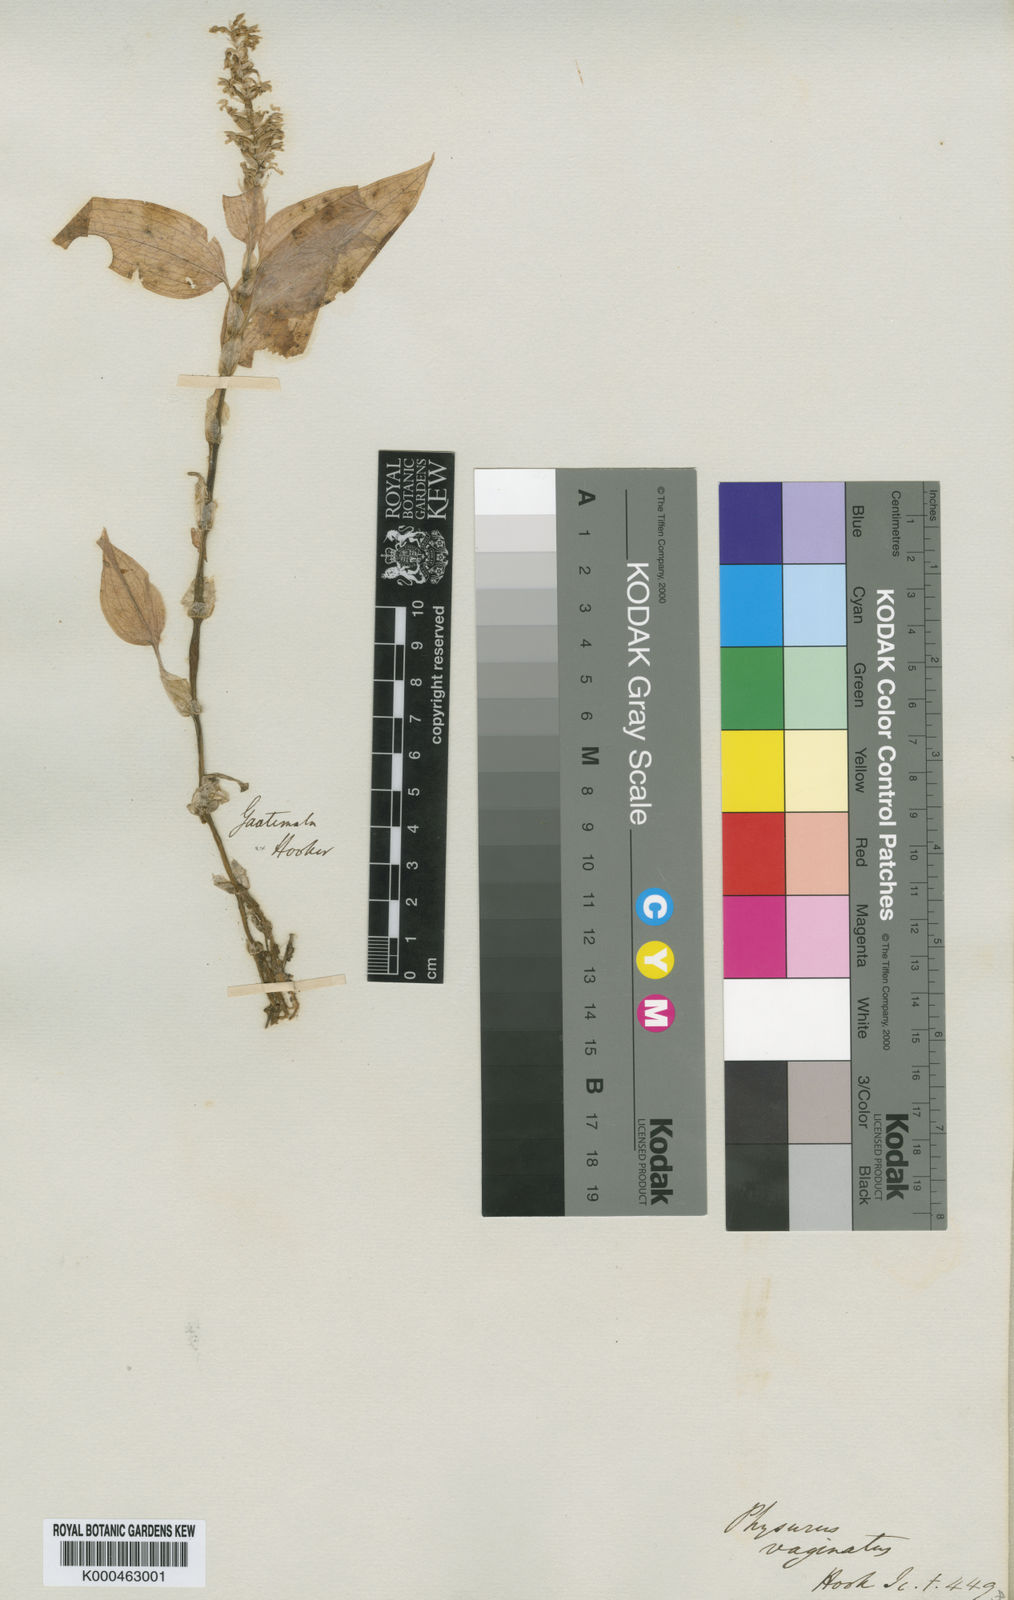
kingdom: Plantae
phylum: Tracheophyta
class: Liliopsida
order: Asparagales
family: Orchidaceae
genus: Aspidogyne
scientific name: Aspidogyne querceticola
